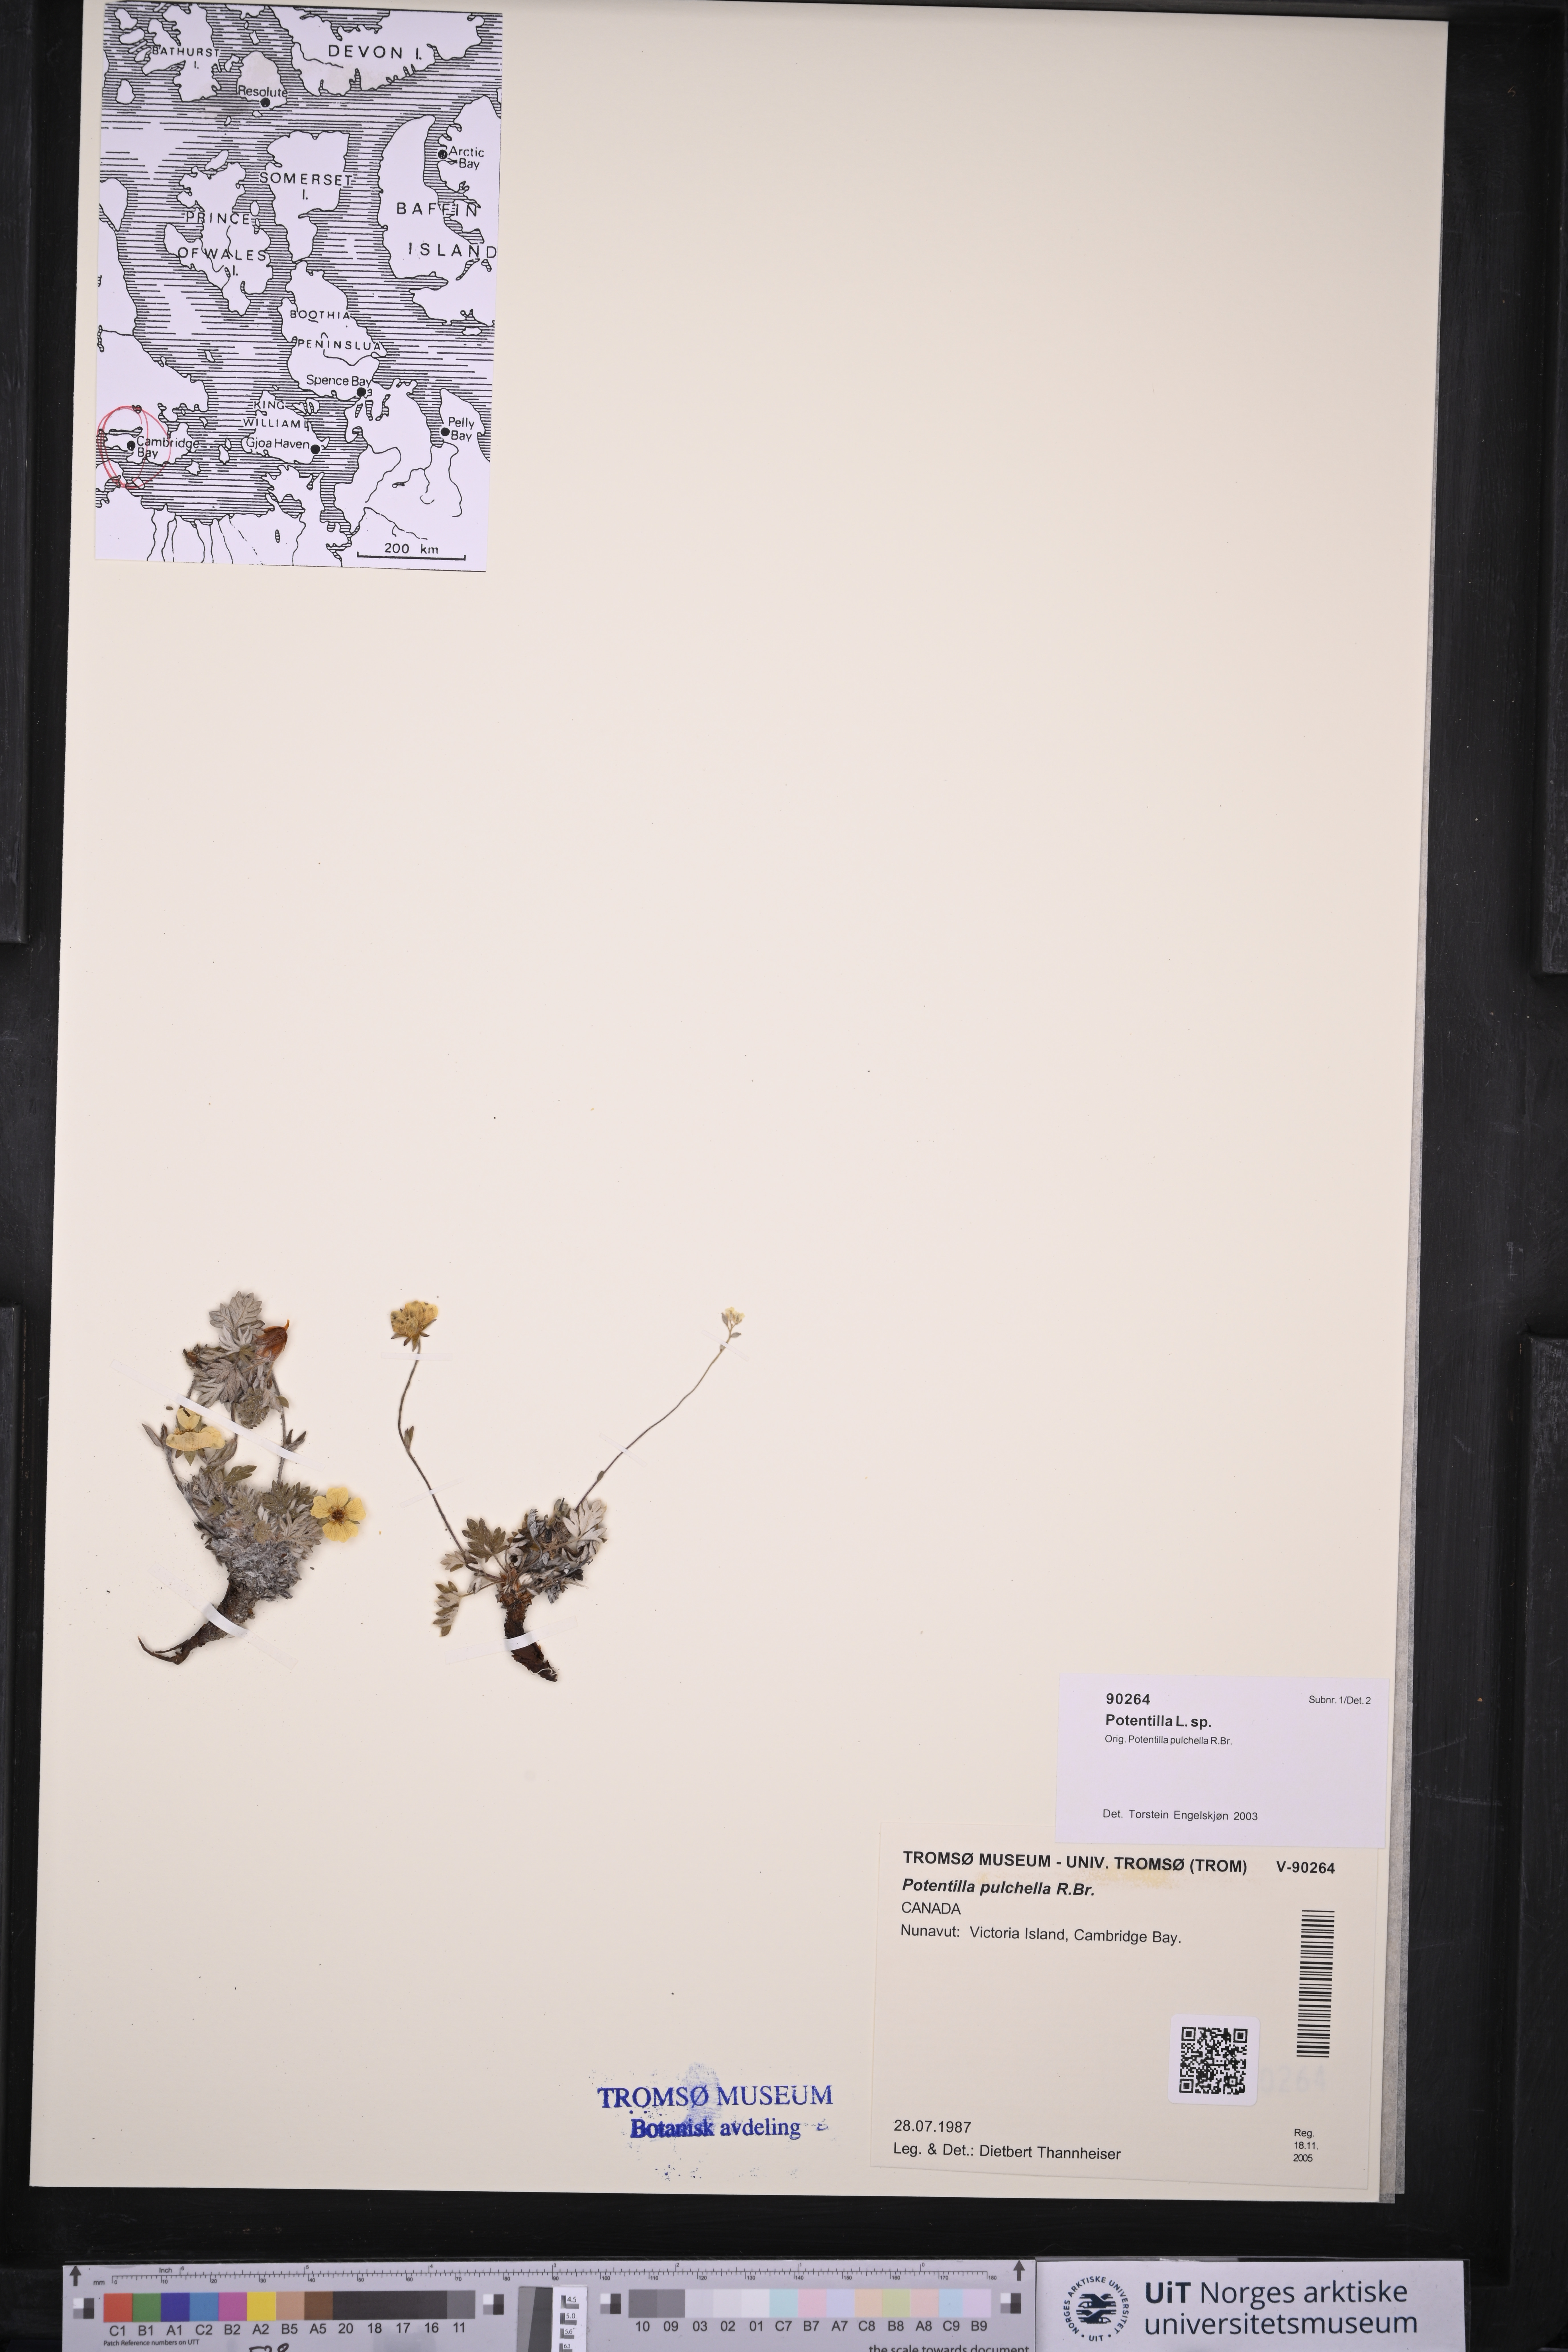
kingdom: Plantae
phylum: Tracheophyta
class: Magnoliopsida
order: Rosales
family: Rosaceae
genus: Potentilla
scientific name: Potentilla
